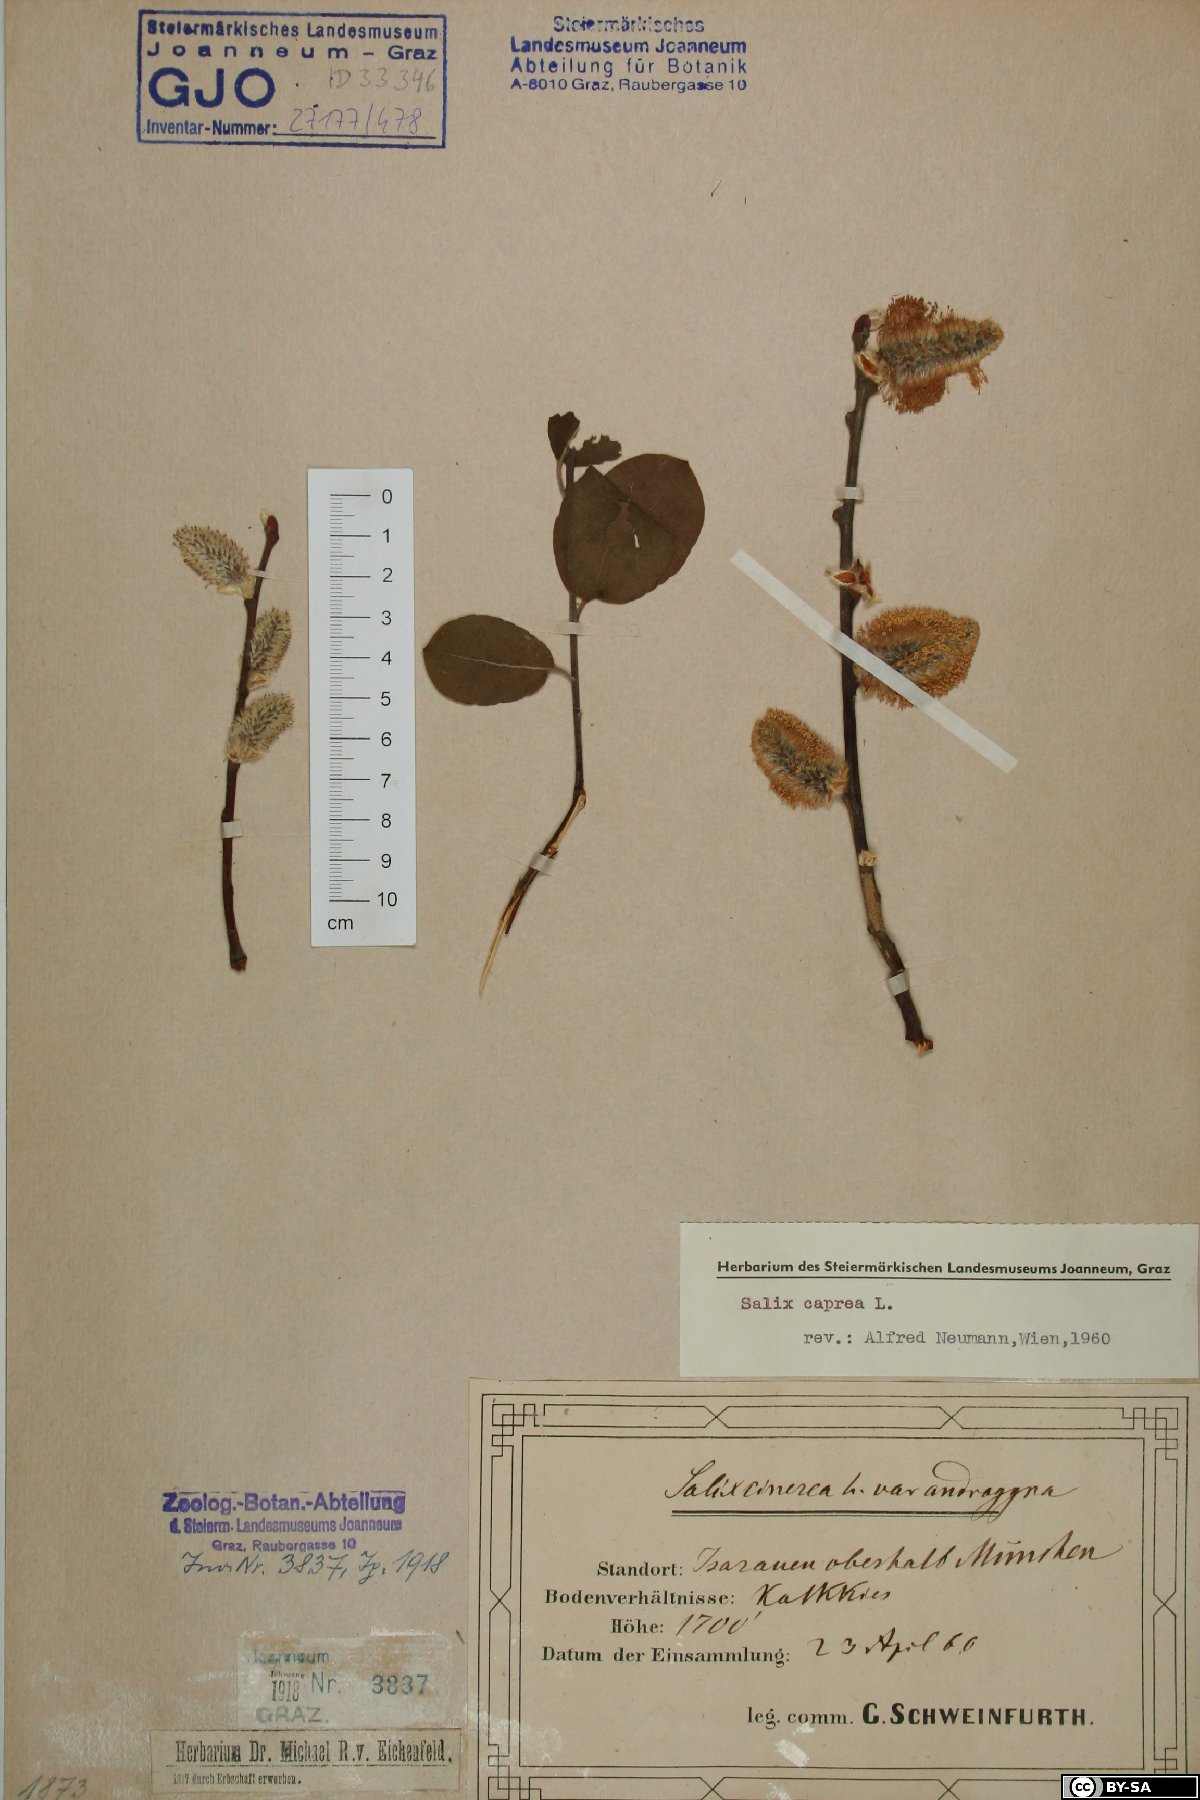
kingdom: Plantae
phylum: Tracheophyta
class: Magnoliopsida
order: Malpighiales
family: Salicaceae
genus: Salix
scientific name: Salix caprea
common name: Goat willow
